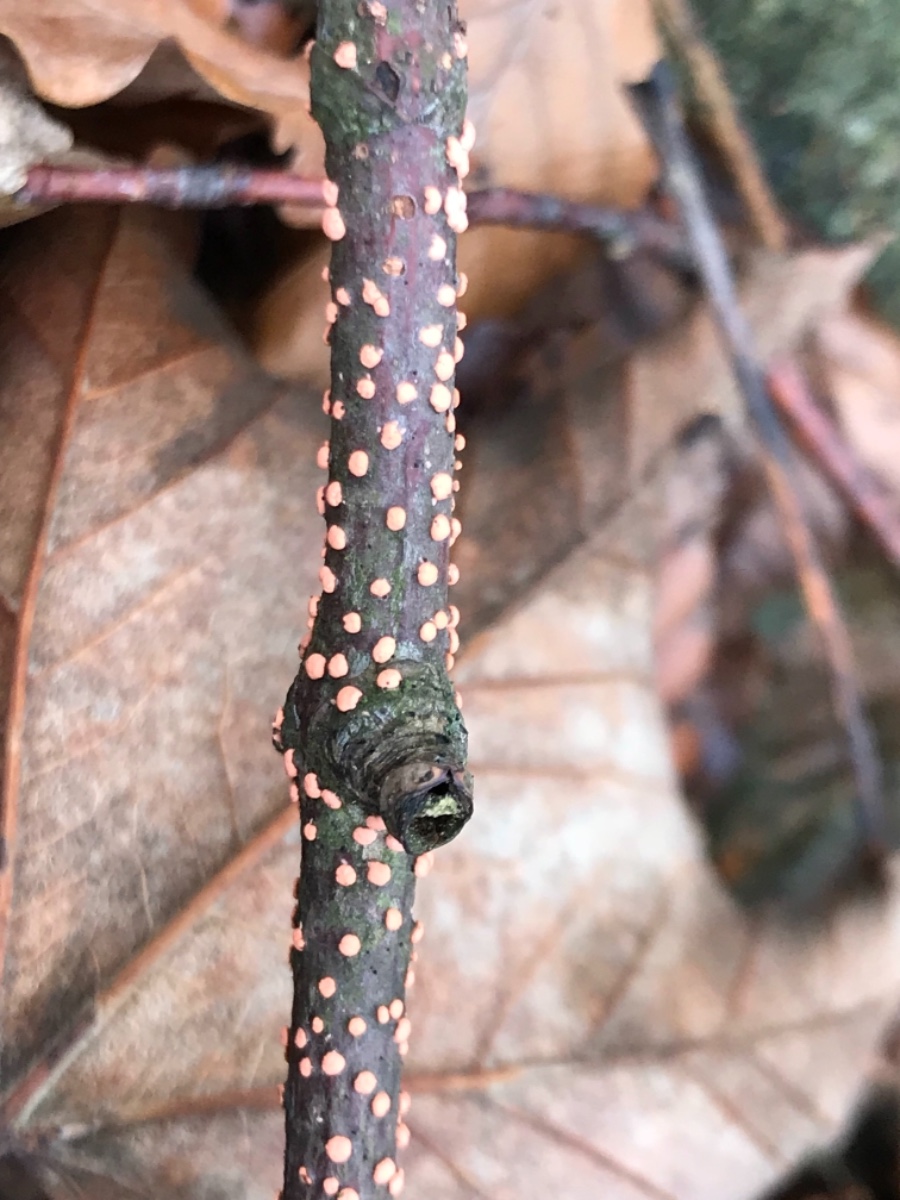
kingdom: Fungi
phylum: Ascomycota
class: Sordariomycetes
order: Hypocreales
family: Nectriaceae
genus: Nectria
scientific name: Nectria cinnabarina
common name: almindelig cinnobersvamp
